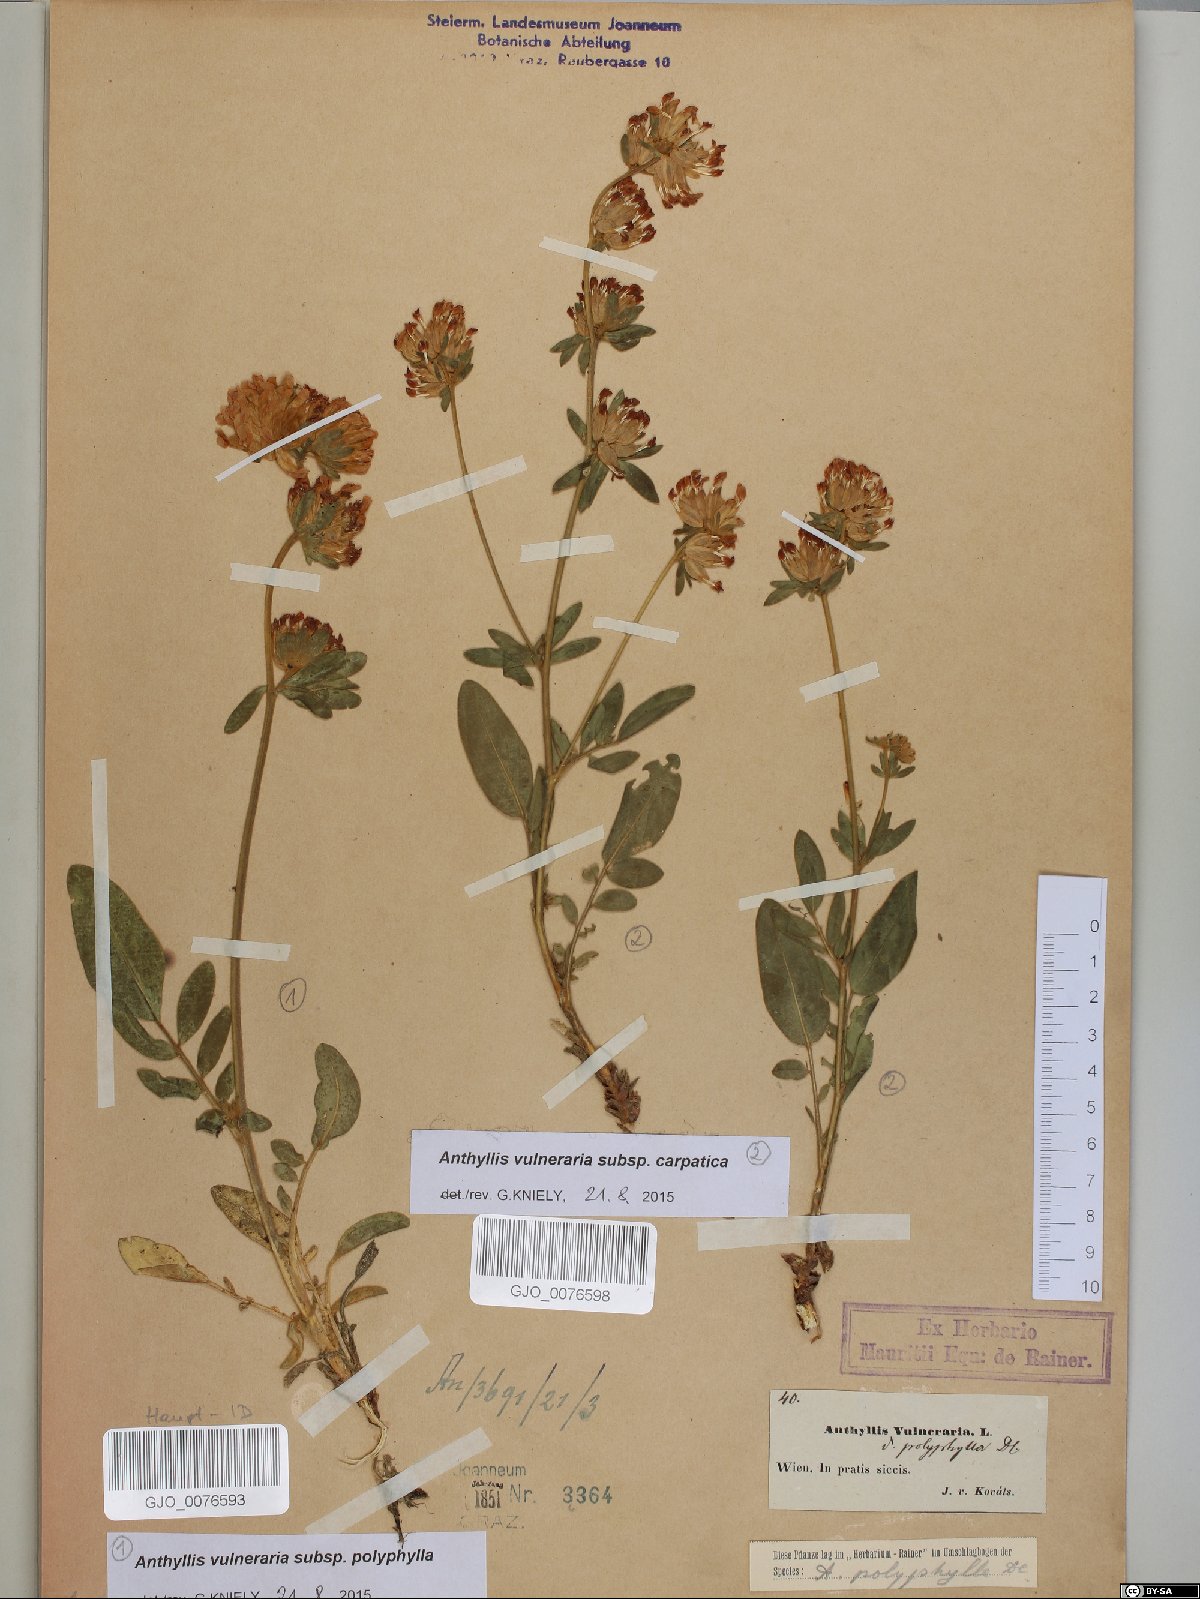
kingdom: Plantae
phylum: Tracheophyta
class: Magnoliopsida
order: Fabales
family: Fabaceae
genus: Anthyllis
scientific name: Anthyllis vulneraria
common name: Kidney vetch
